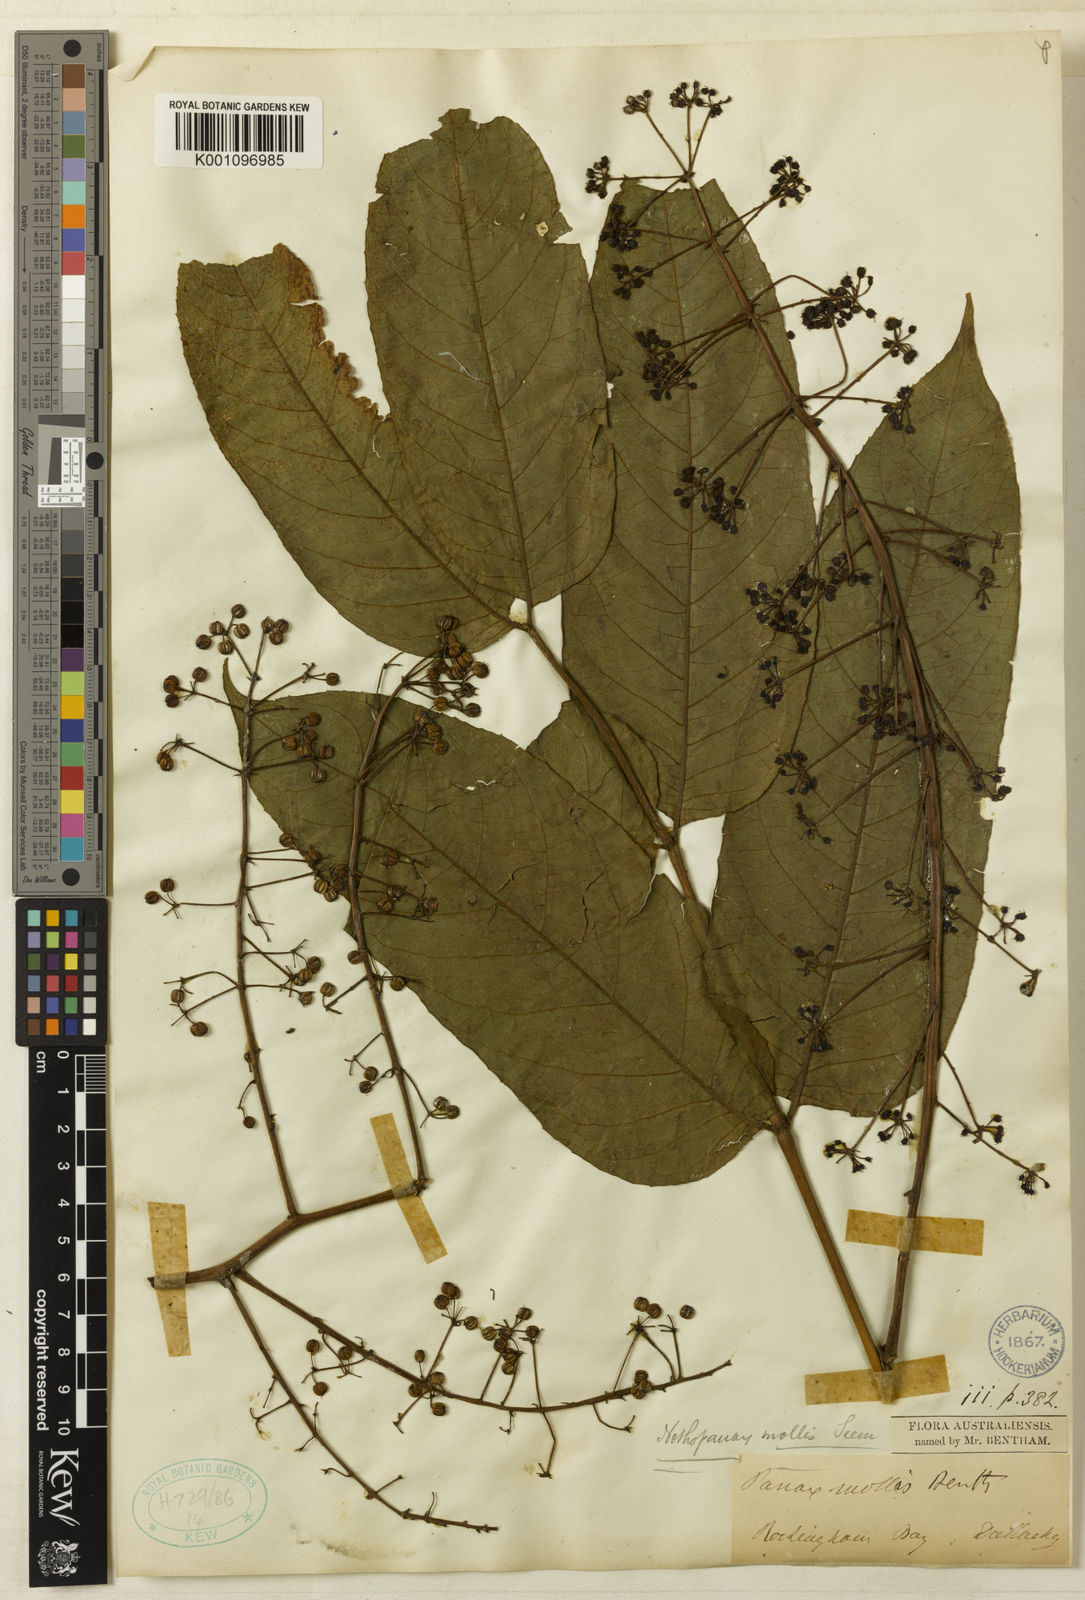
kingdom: Plantae
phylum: Tracheophyta
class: Magnoliopsida
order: Apiales
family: Araliaceae
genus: Polyscias
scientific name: Polyscias mollis
